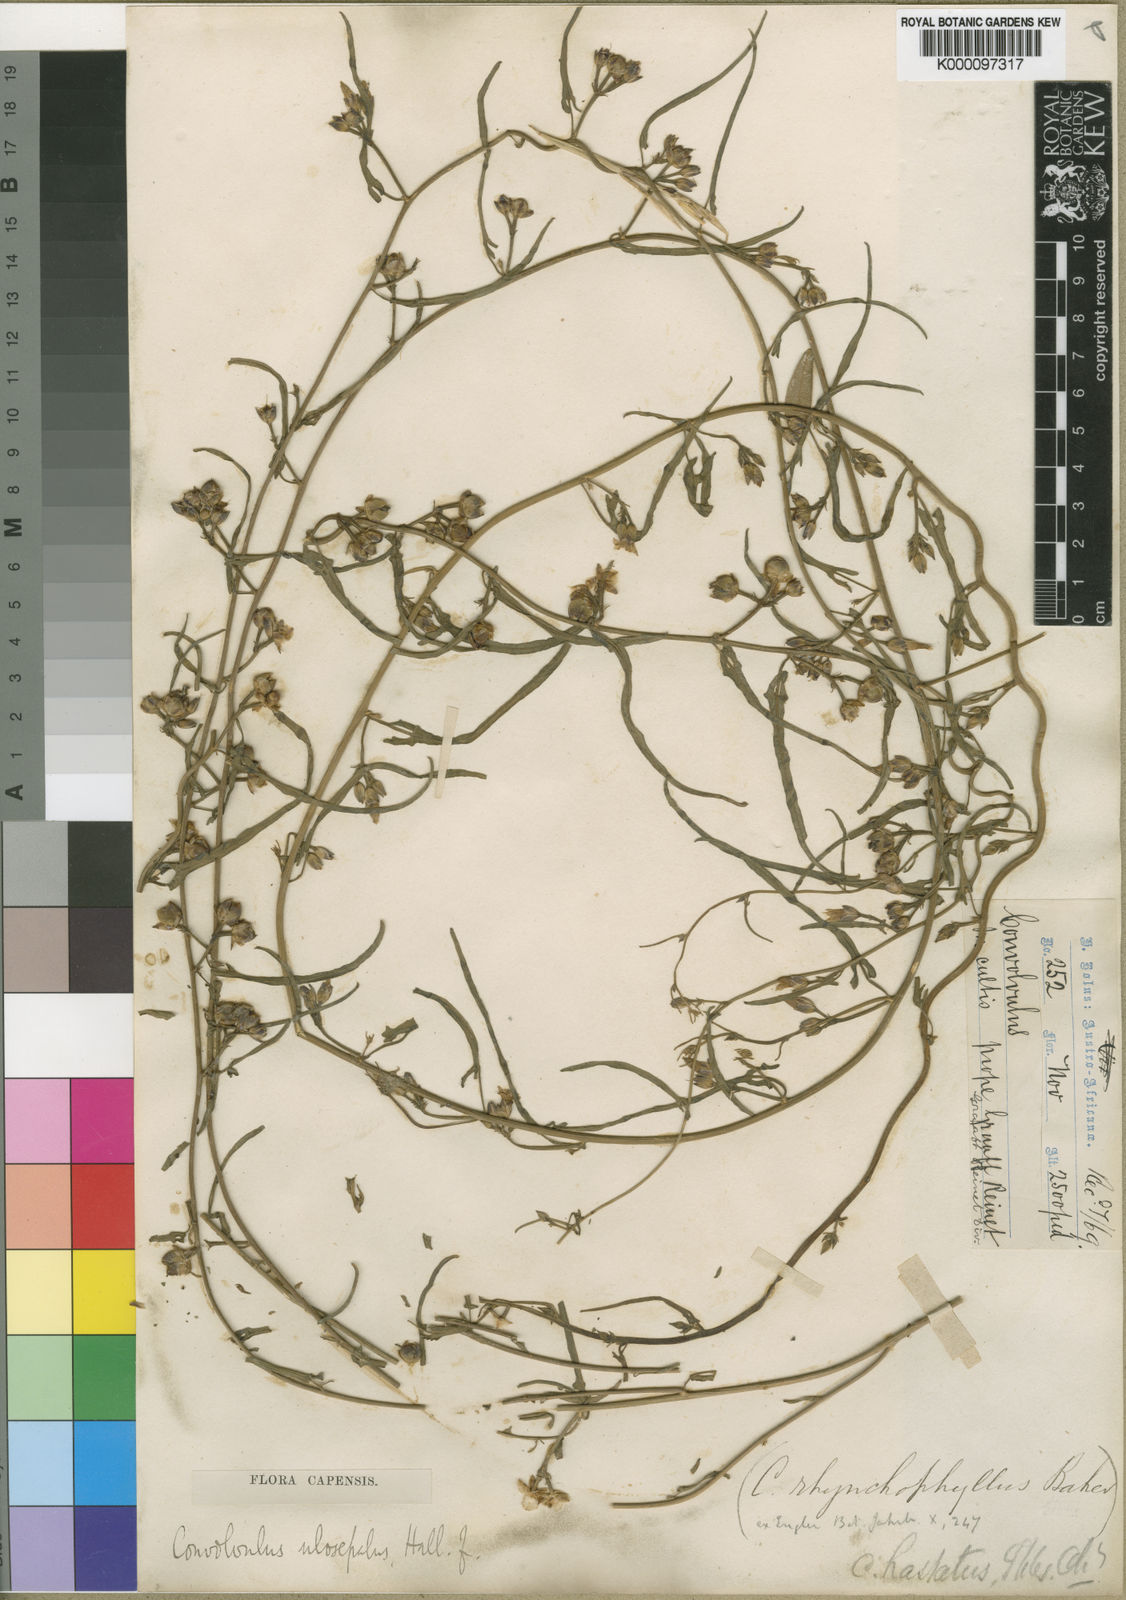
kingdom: Plantae
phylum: Tracheophyta
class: Magnoliopsida
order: Solanales
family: Convolvulaceae
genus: Convolvulus
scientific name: Convolvulus aschersonii
